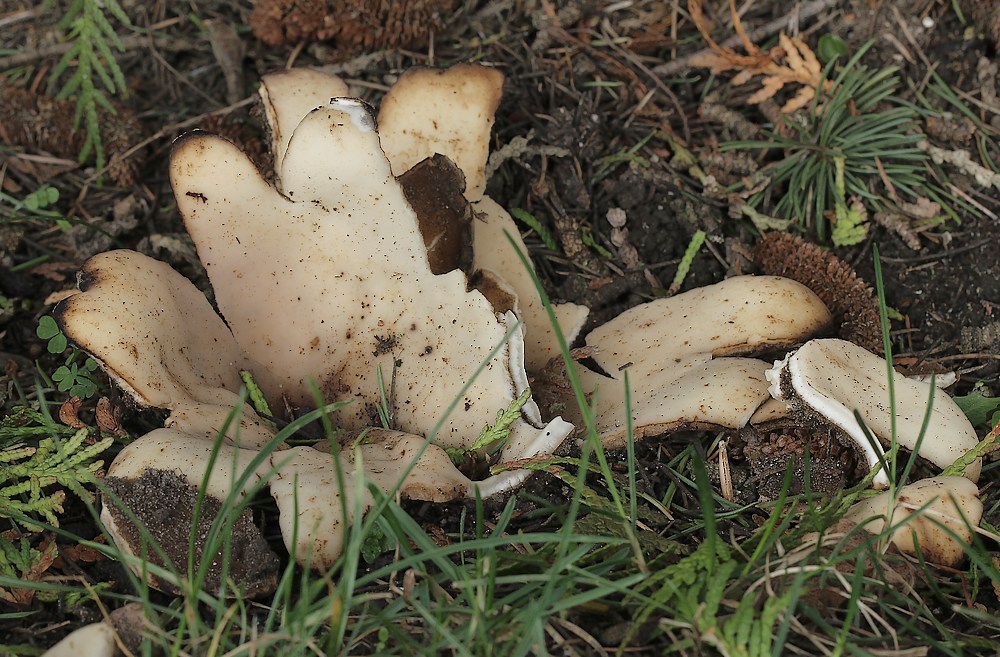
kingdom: Fungi
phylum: Ascomycota
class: Pezizomycetes
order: Pezizales
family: Pyronemataceae
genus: Geopora
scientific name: Geopora sumneriana
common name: vår-jordbæger
